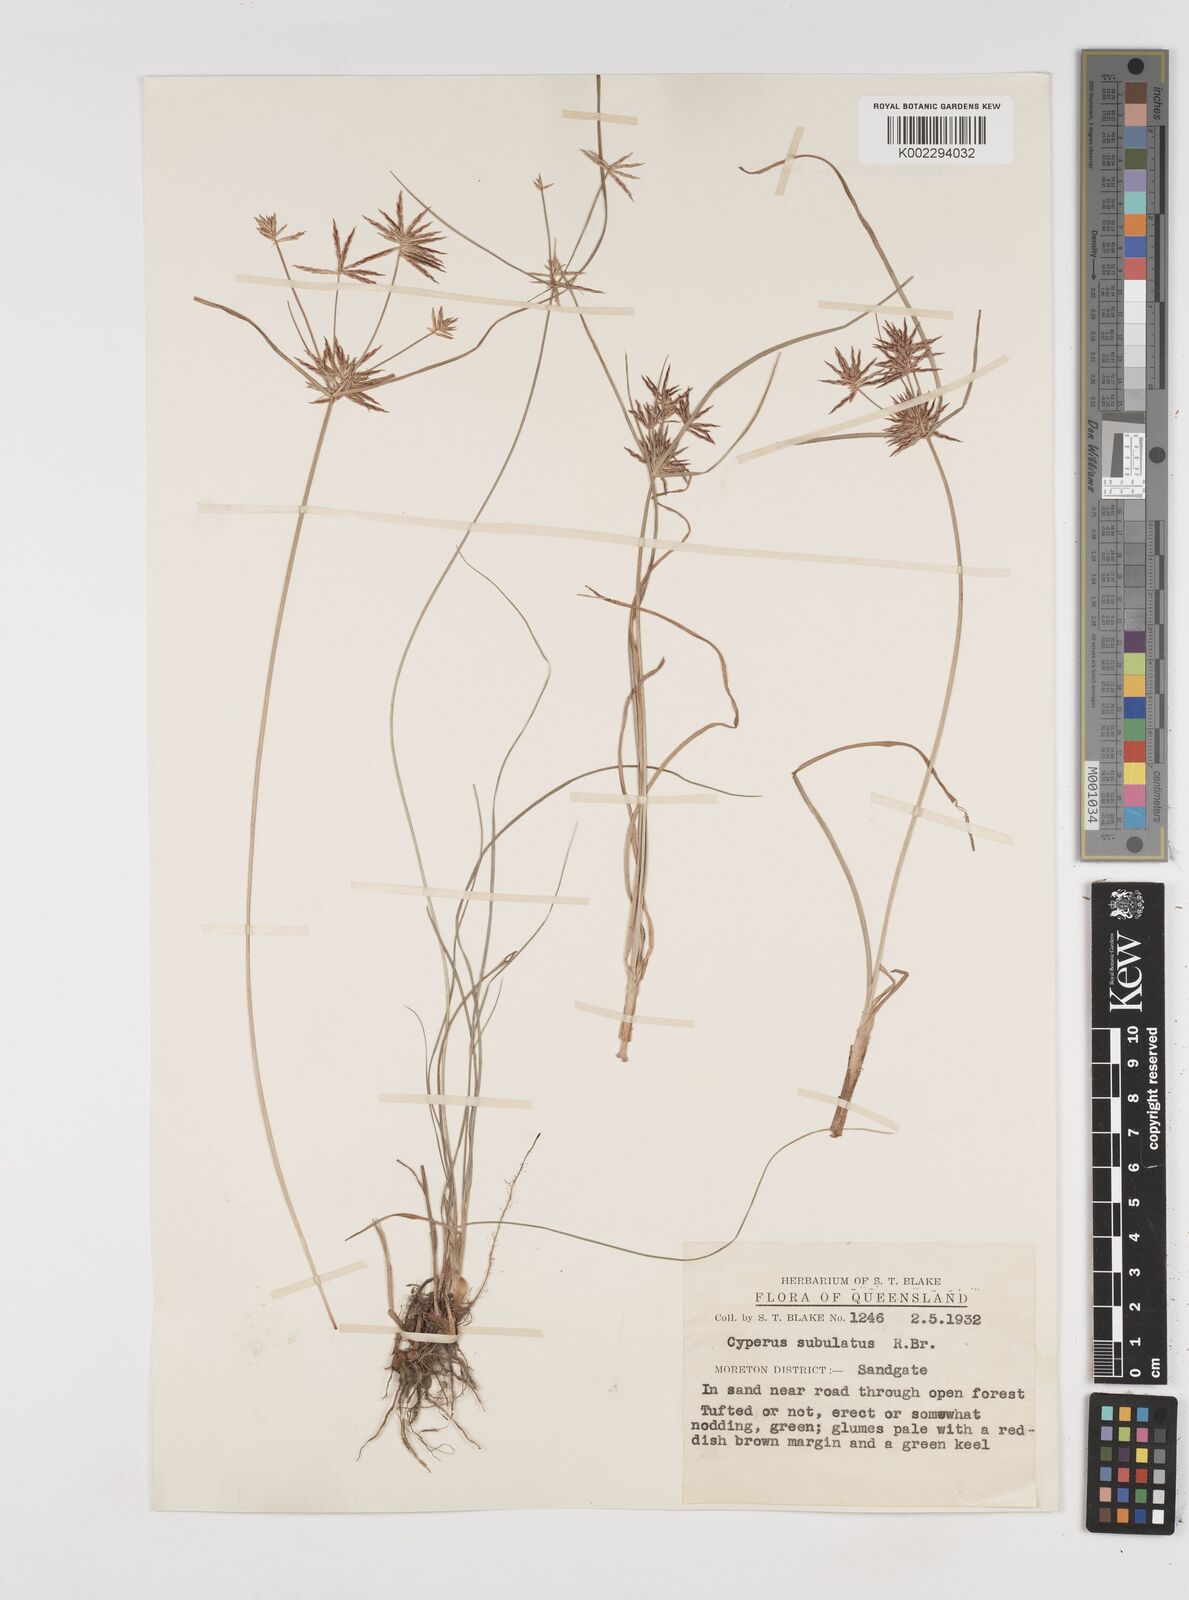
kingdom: Plantae
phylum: Tracheophyta
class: Liliopsida
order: Poales
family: Cyperaceae
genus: Cyperus
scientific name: Cyperus subulatus
